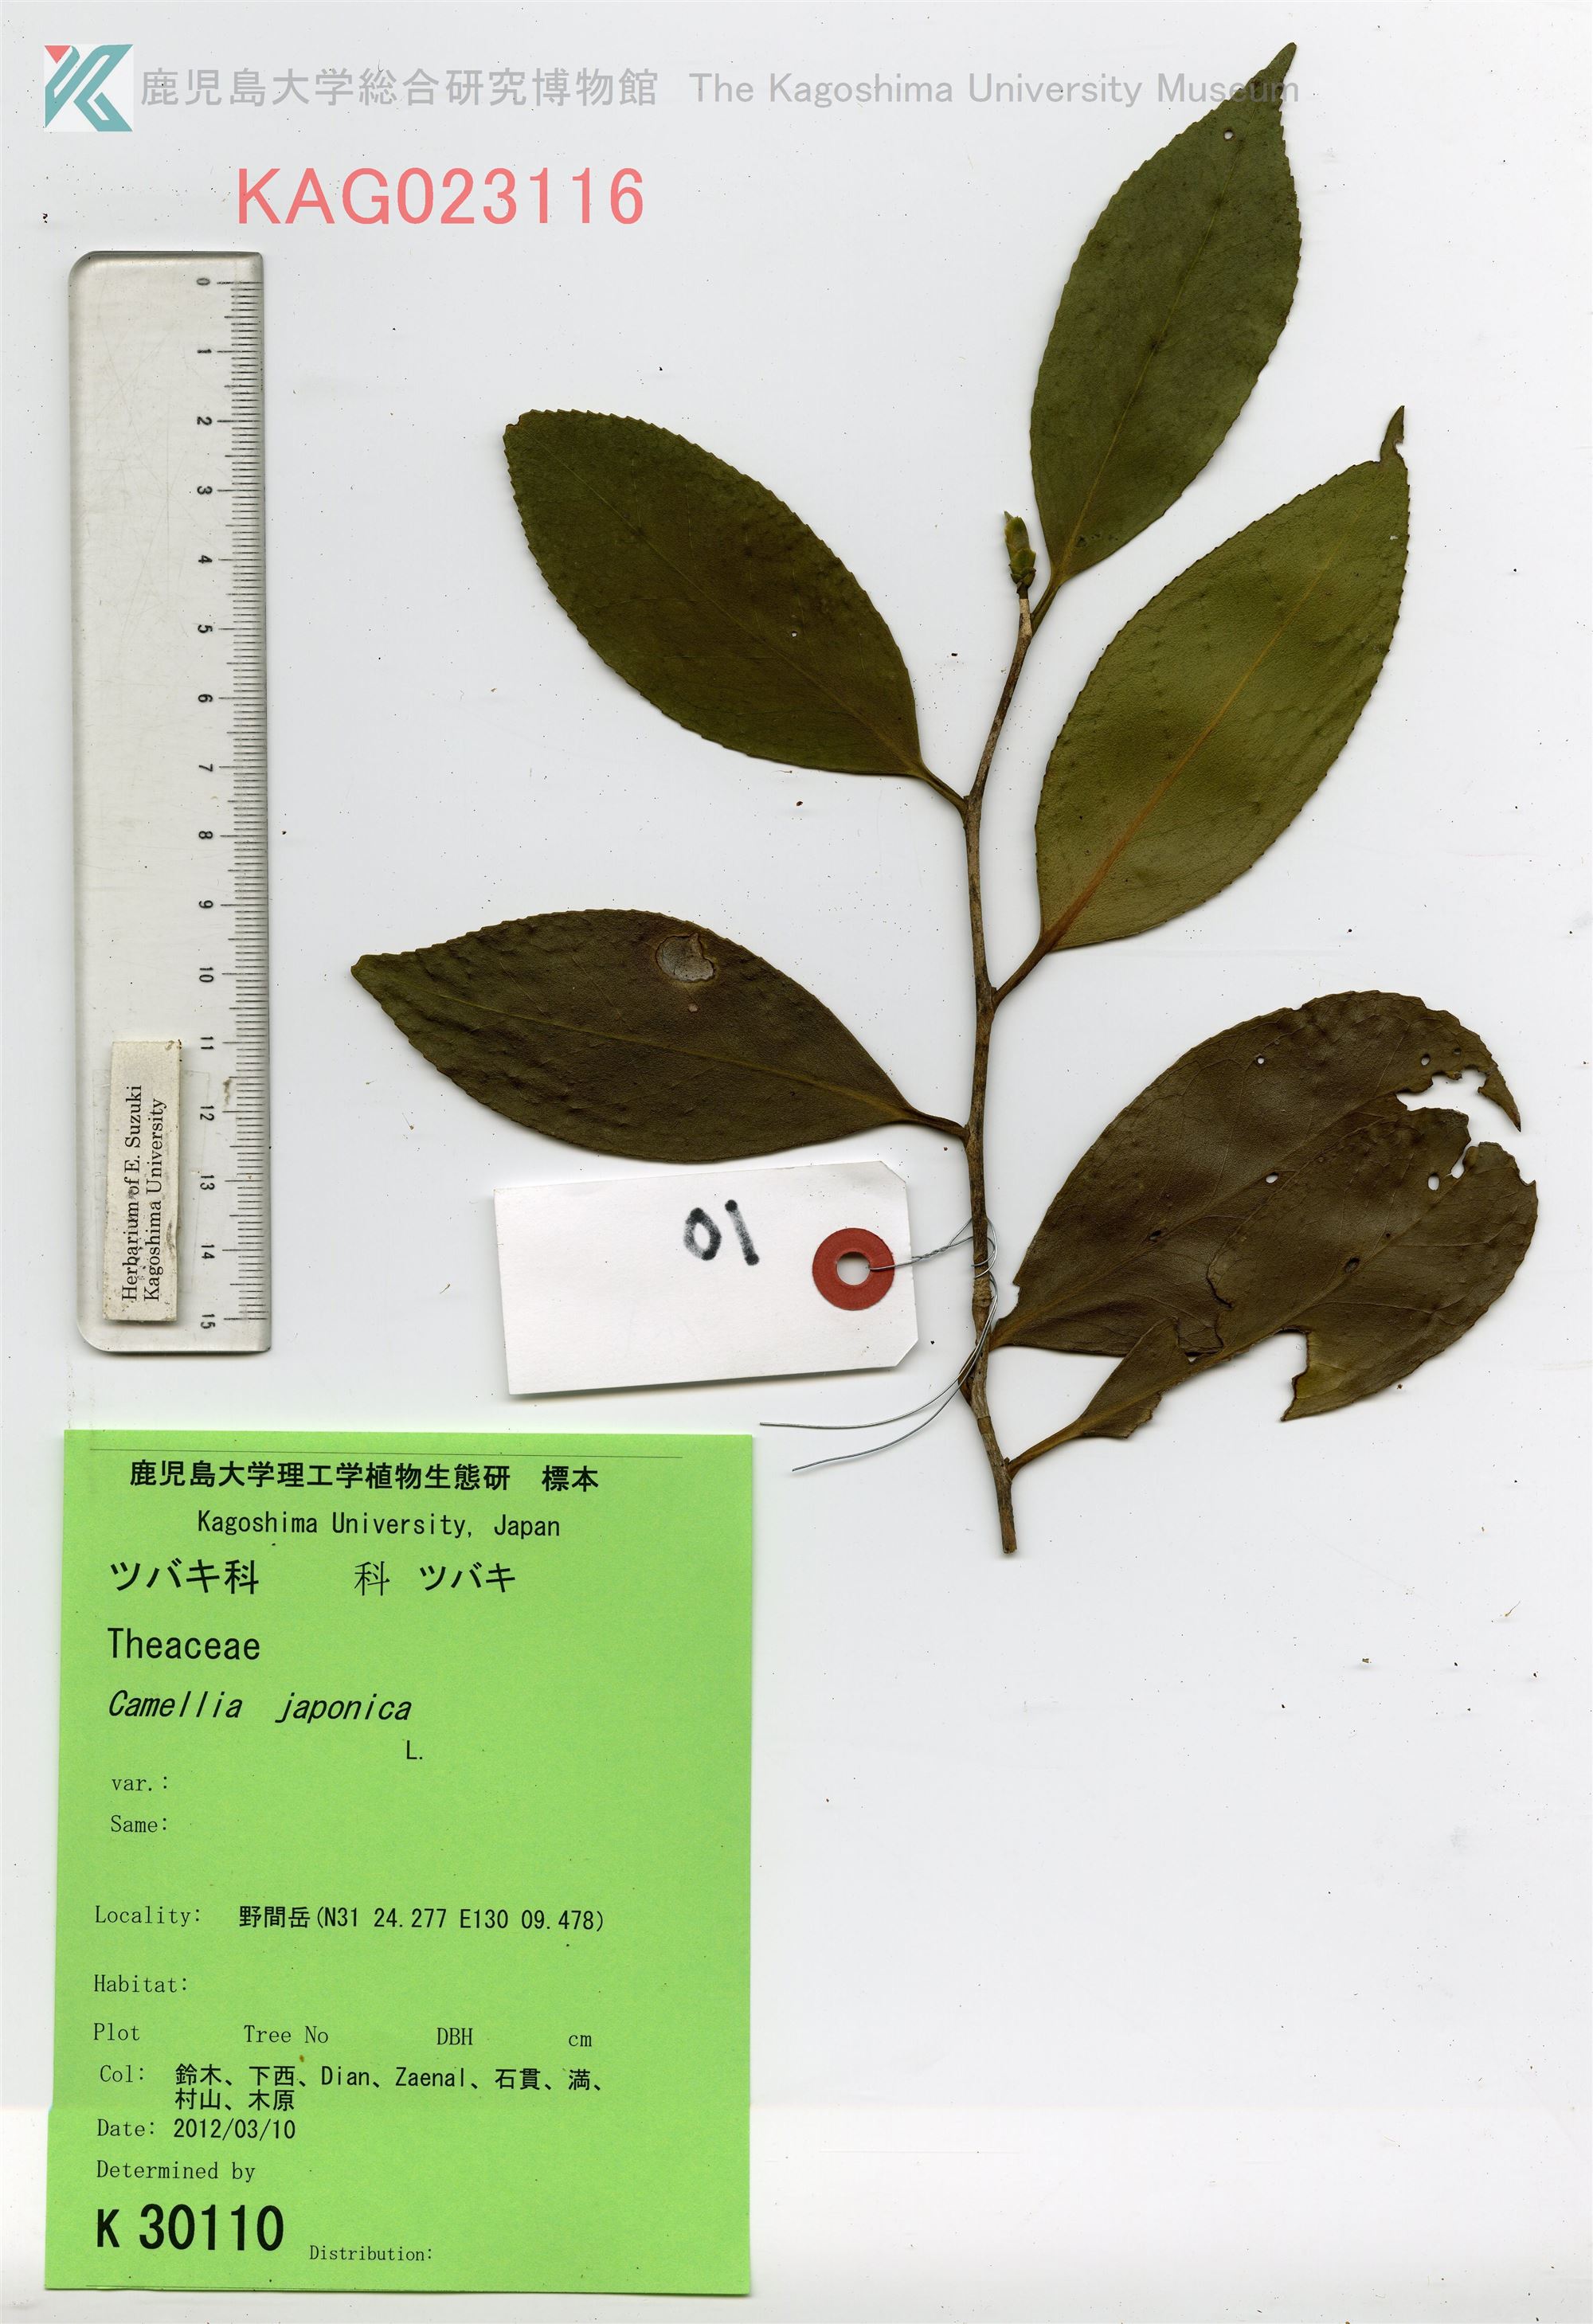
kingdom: Plantae
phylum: Tracheophyta
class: Magnoliopsida
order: Ericales
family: Theaceae
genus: Camellia
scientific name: Camellia japonica
